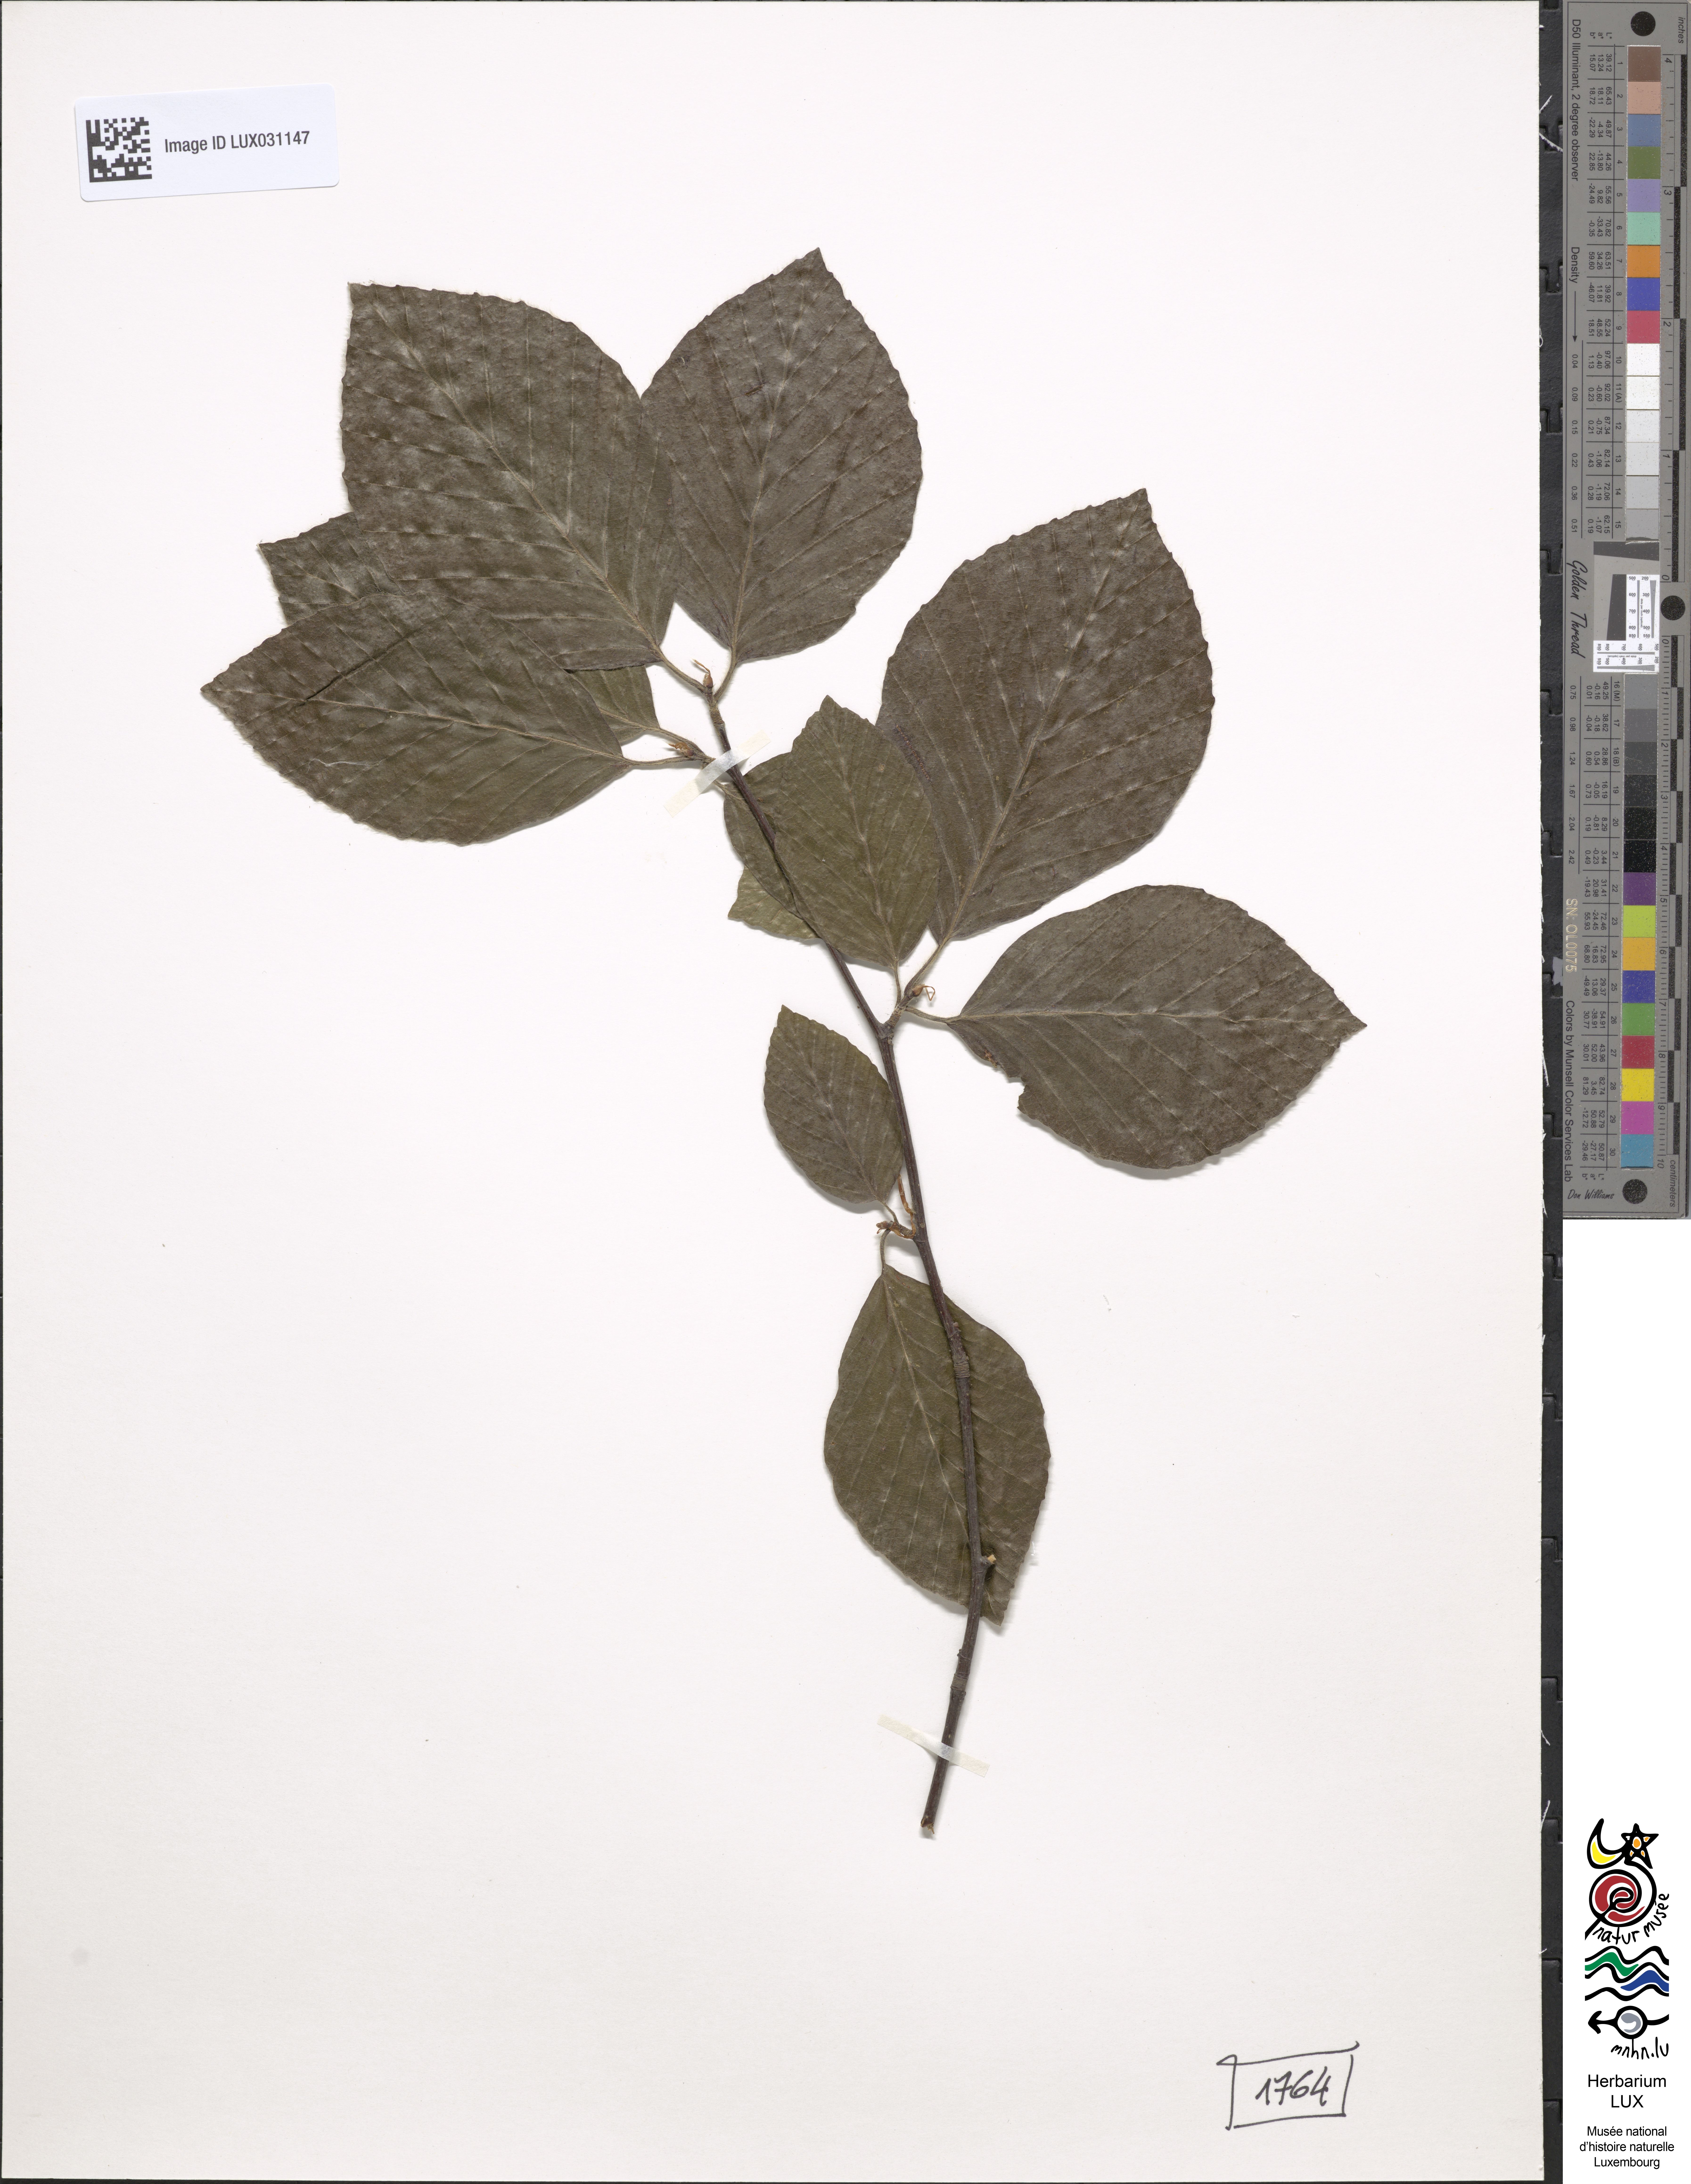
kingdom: Plantae
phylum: Tracheophyta
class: Magnoliopsida
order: Fagales
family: Fagaceae
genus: Fagus
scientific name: Fagus sylvatica
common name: Beech
